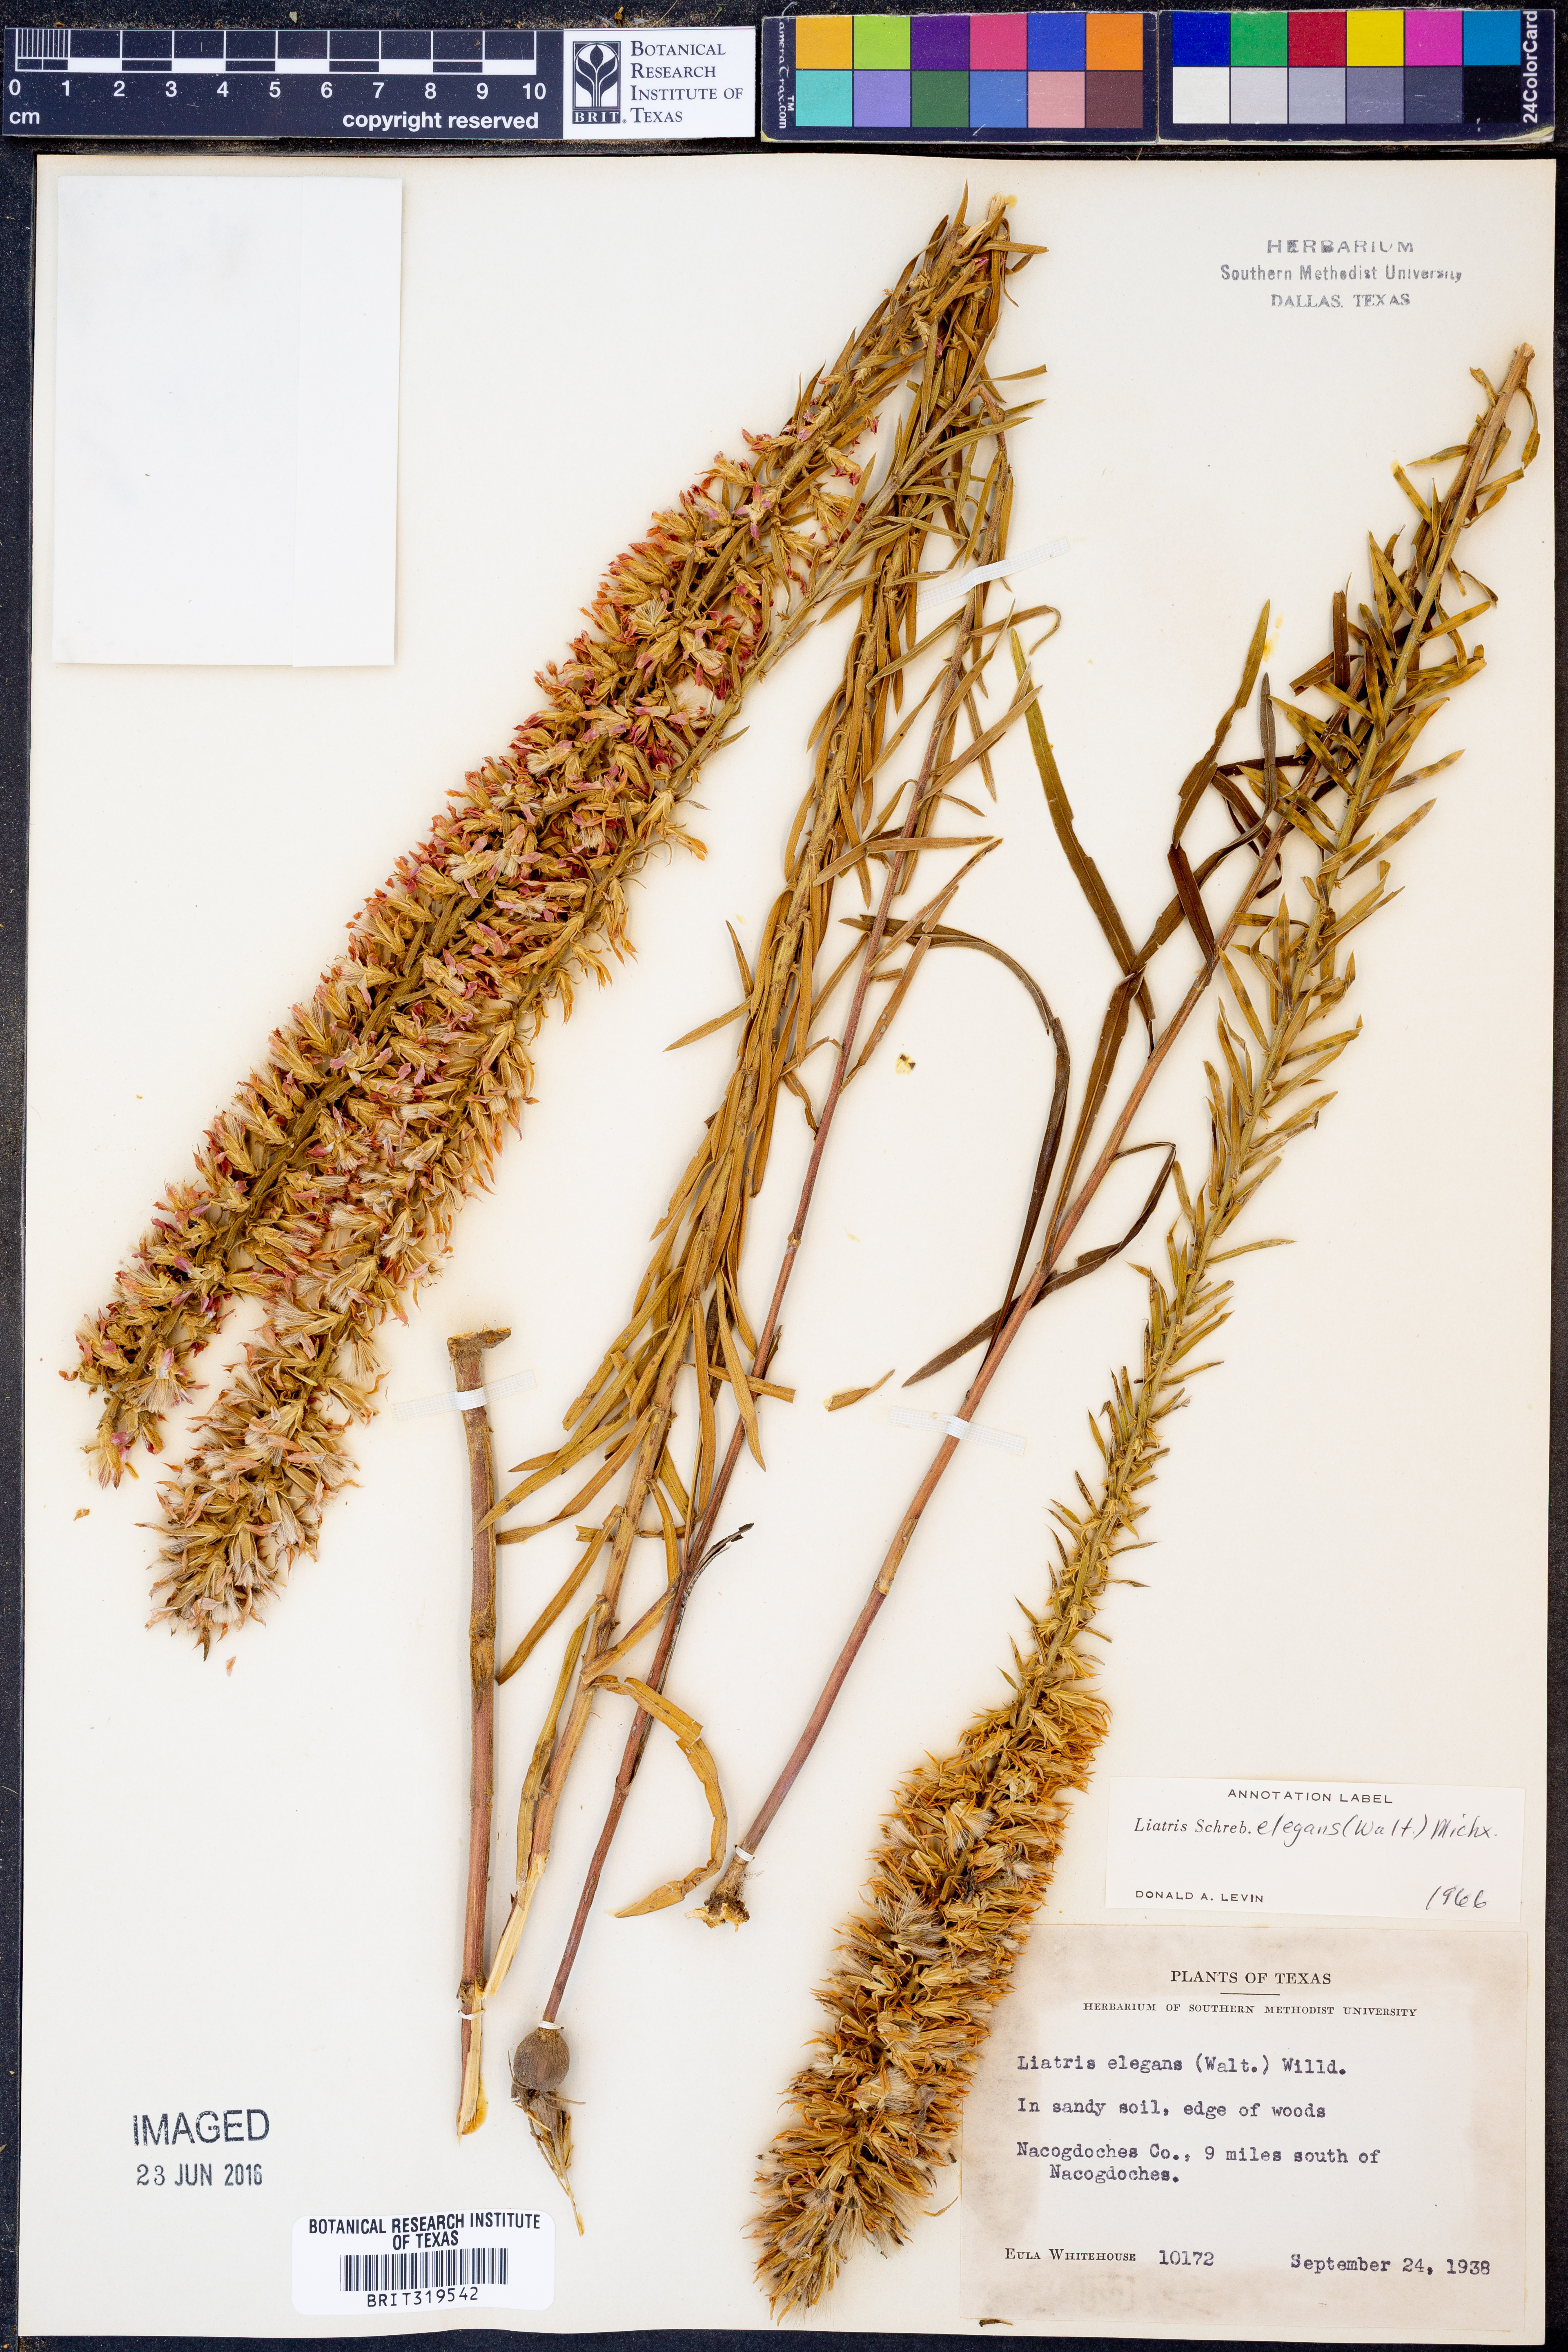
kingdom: Plantae
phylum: Tracheophyta
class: Magnoliopsida
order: Asterales
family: Asteraceae
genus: Liatris
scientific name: Liatris elegans
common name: Pinkscale gayfeather
